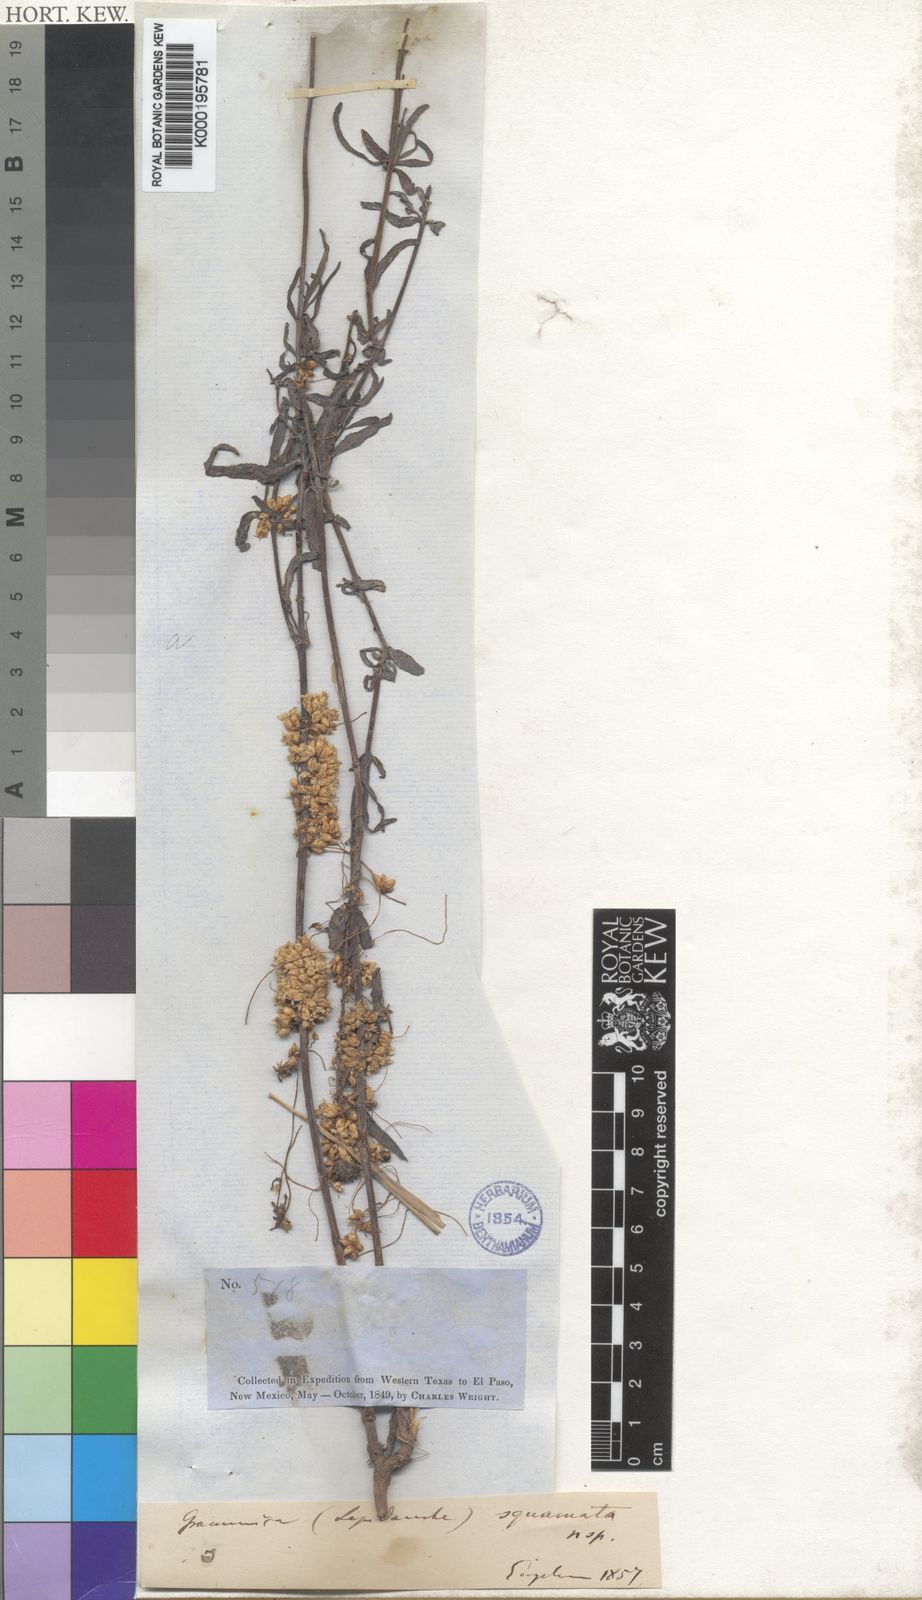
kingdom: Plantae
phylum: Tracheophyta
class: Magnoliopsida
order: Solanales
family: Convolvulaceae
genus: Cuscuta
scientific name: Cuscuta squamata
